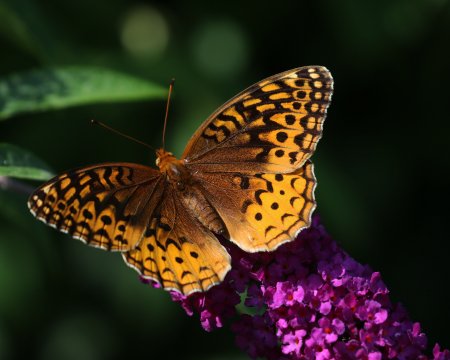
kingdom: Animalia
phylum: Arthropoda
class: Insecta
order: Lepidoptera
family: Nymphalidae
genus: Speyeria
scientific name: Speyeria cybele
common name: Great Spangled Fritillary
